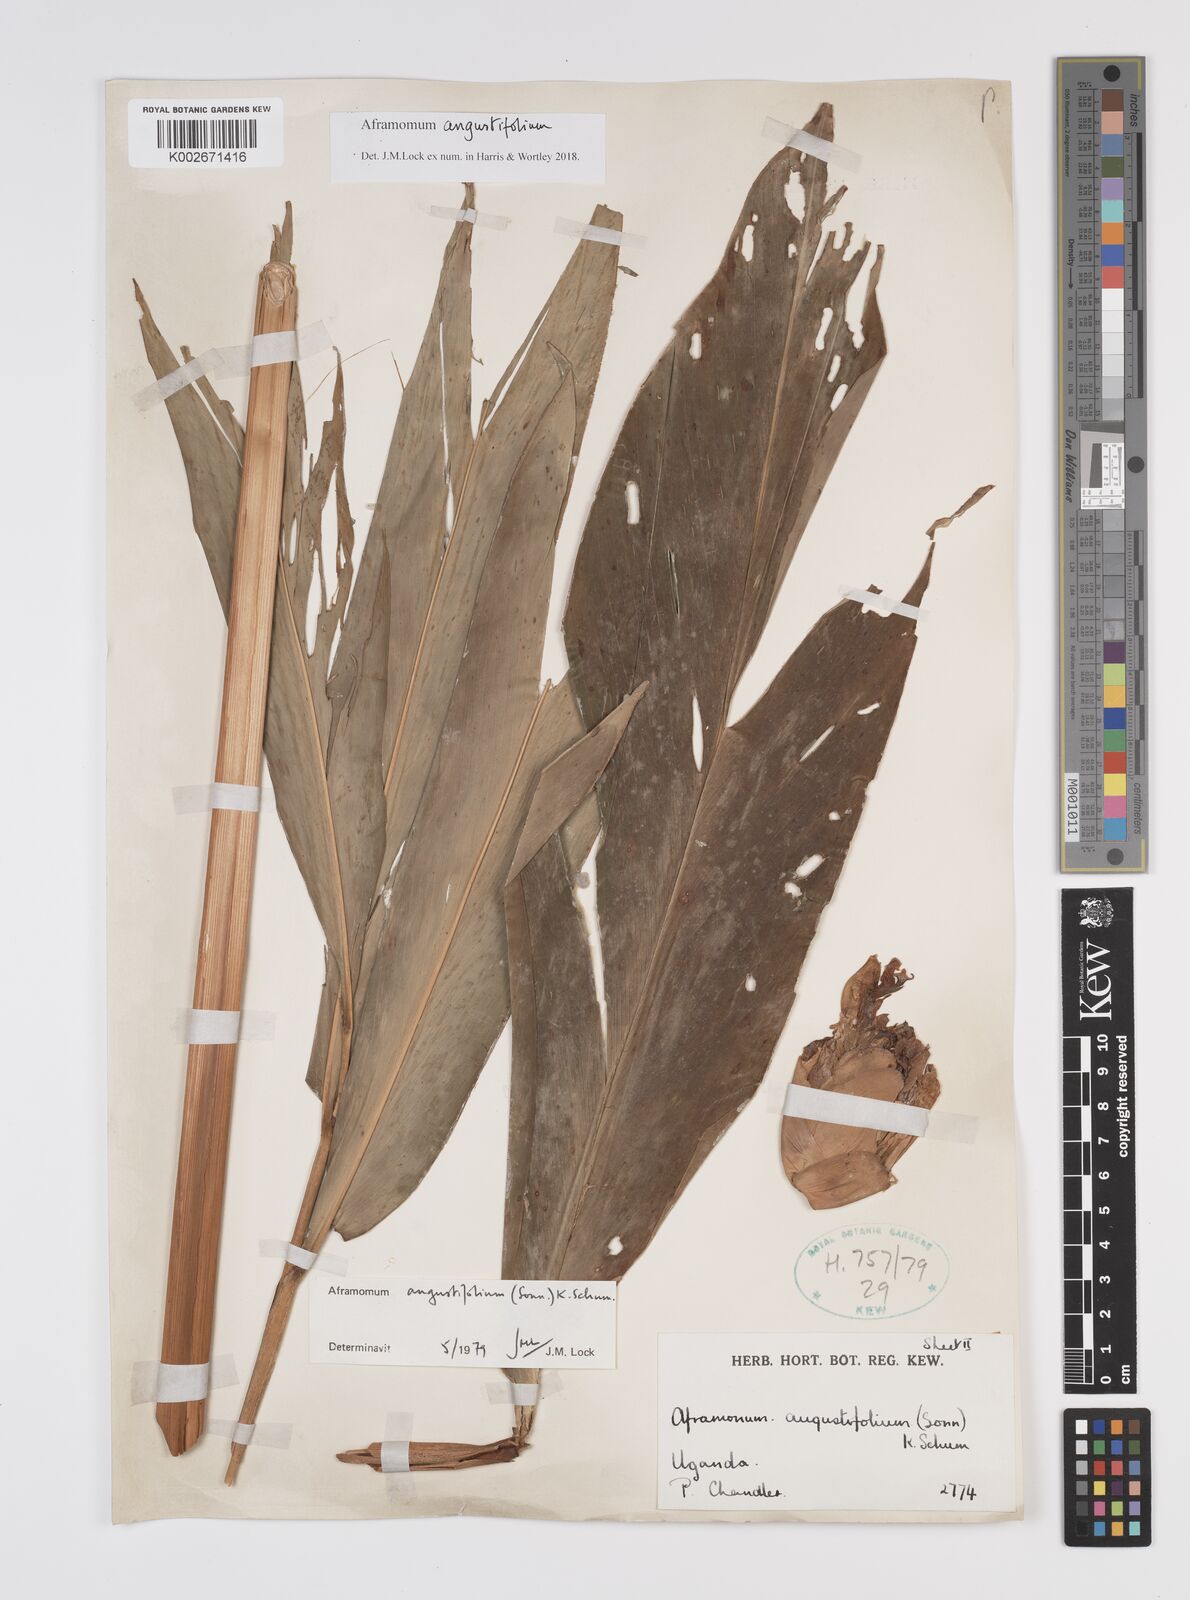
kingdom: Plantae
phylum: Tracheophyta
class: Liliopsida
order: Zingiberales
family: Zingiberaceae
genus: Aframomum
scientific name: Aframomum angustifolium
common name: Guinea grains
